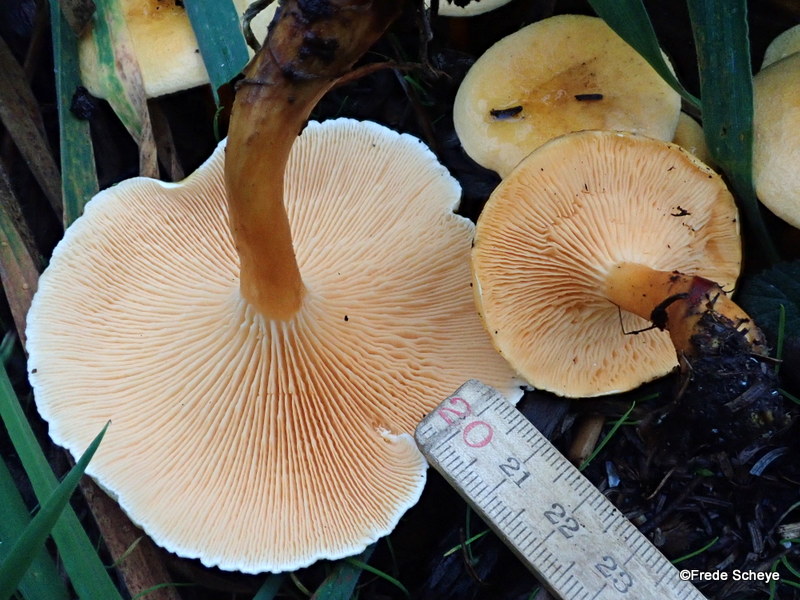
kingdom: Fungi
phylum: Basidiomycota
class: Agaricomycetes
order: Boletales
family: Hygrophoropsidaceae
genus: Hygrophoropsis
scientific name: Hygrophoropsis aurantiaca
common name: almindelig orangekantarel
